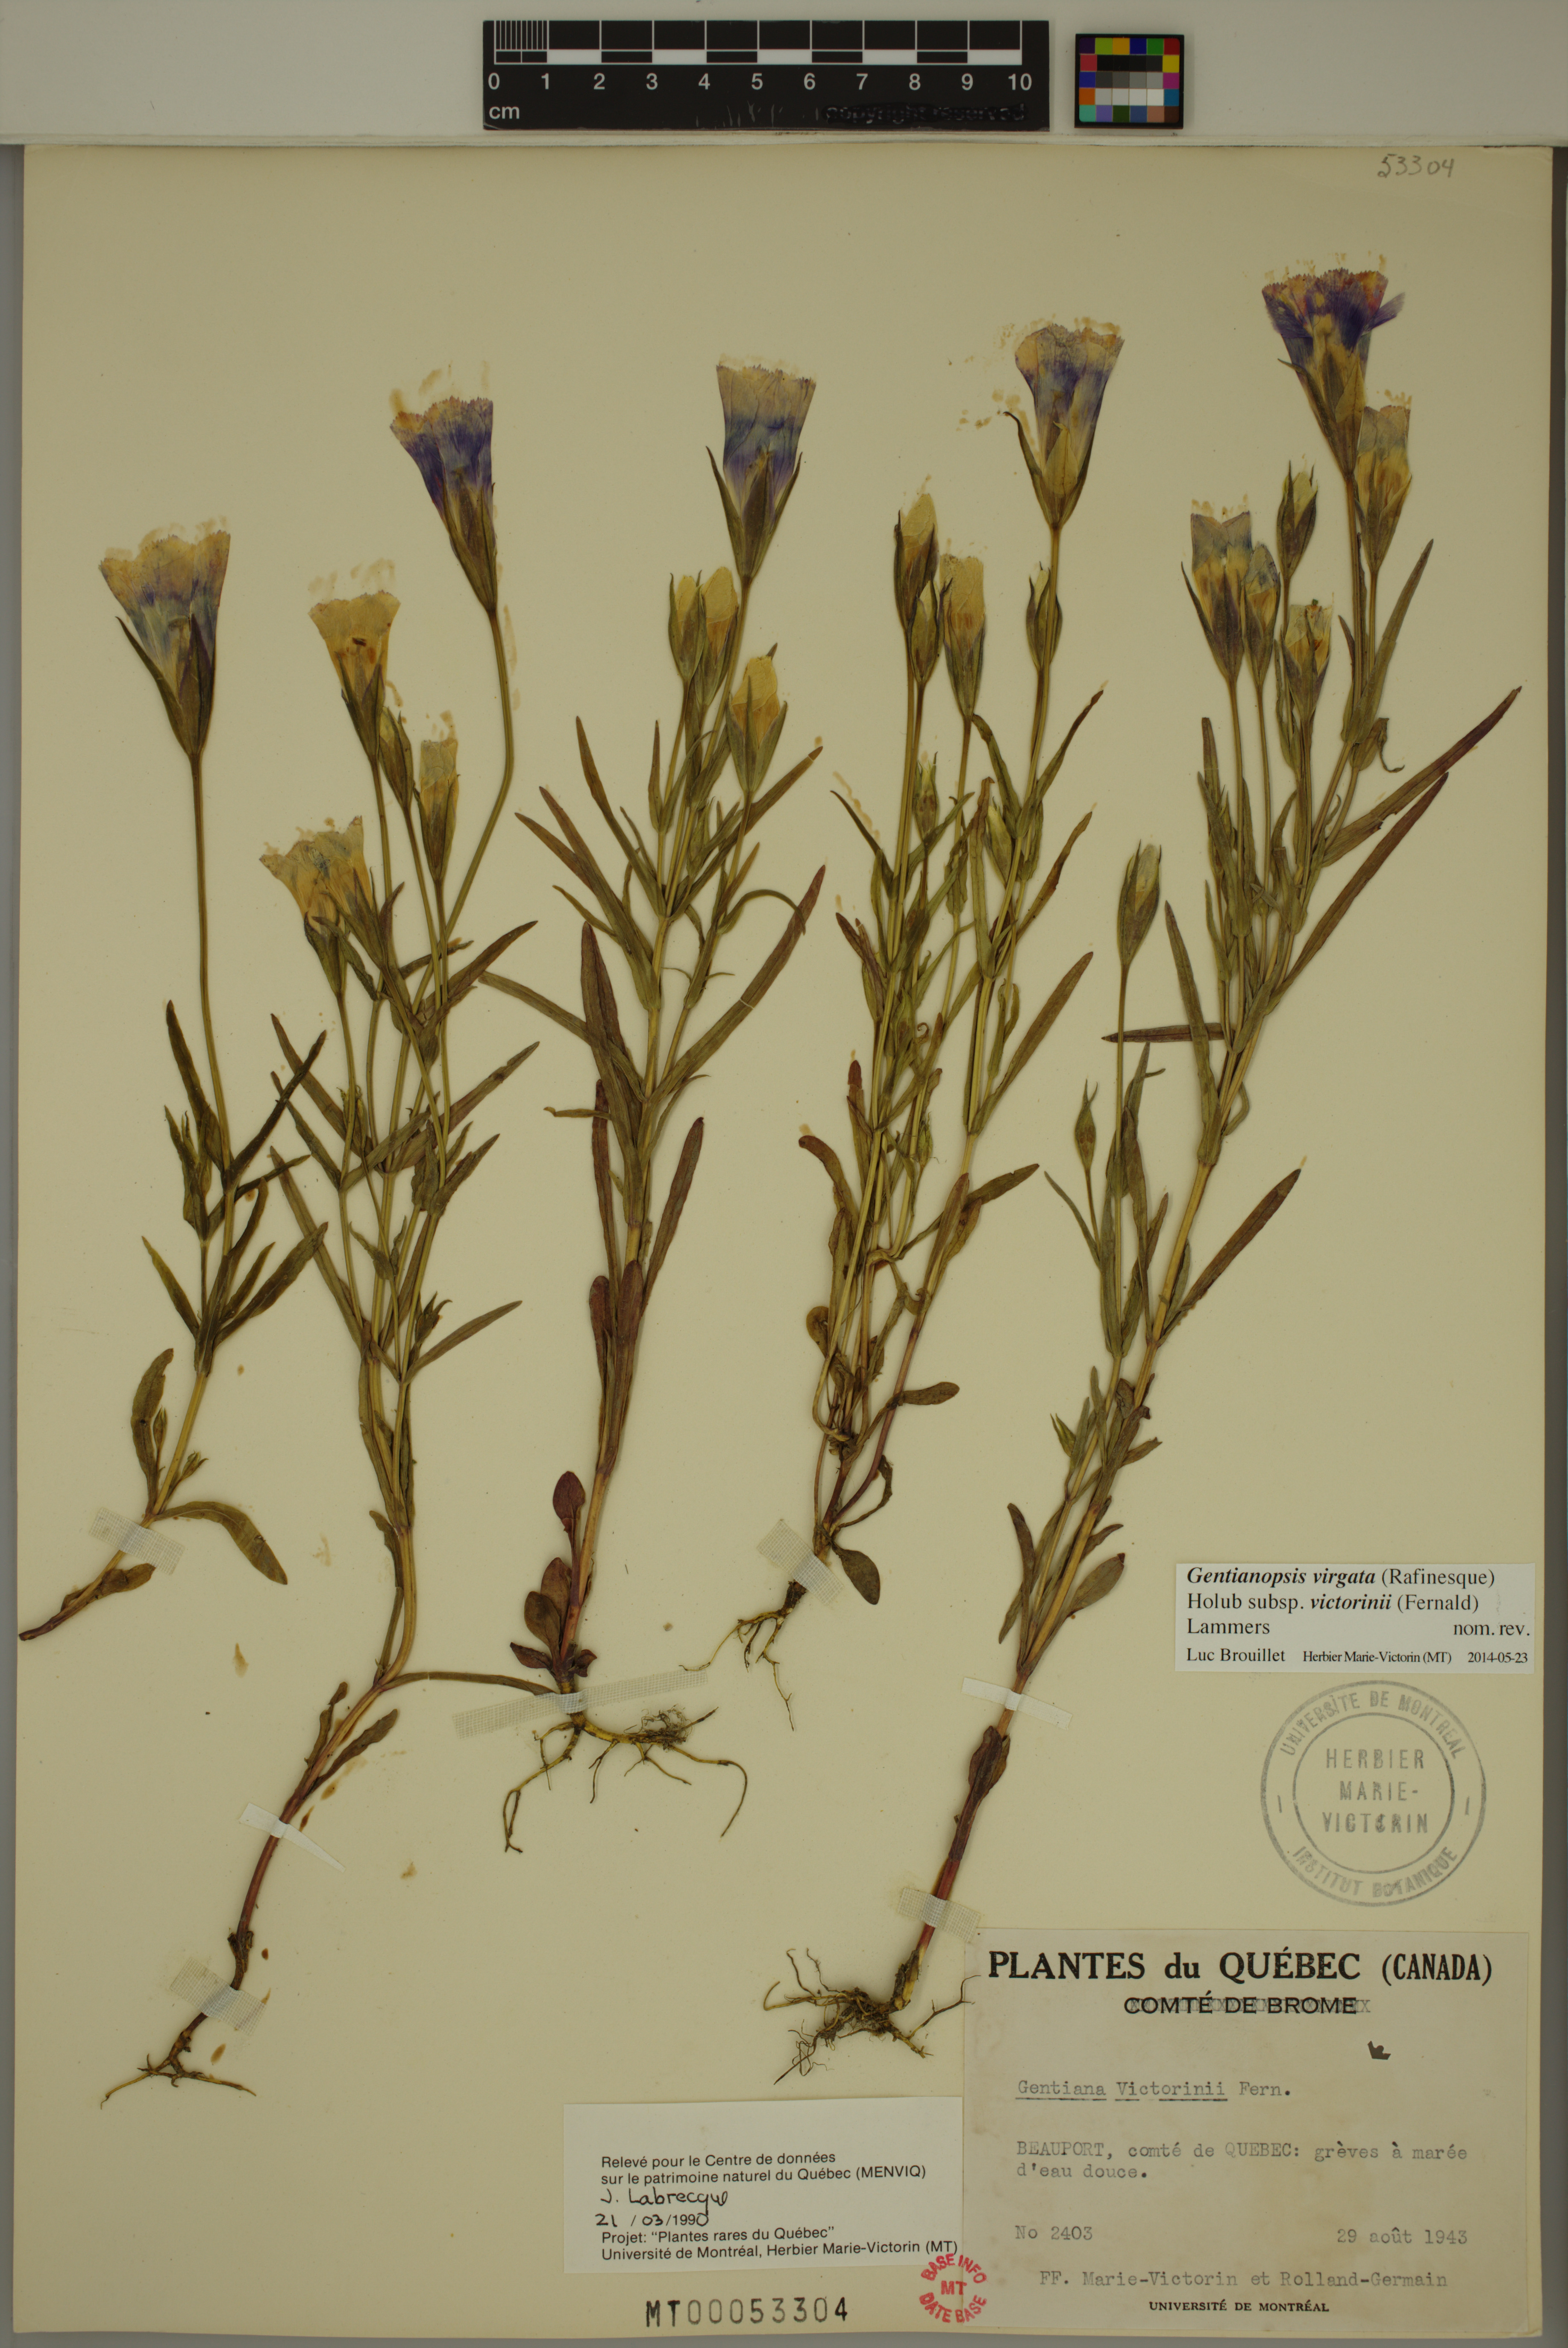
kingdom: Plantae
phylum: Tracheophyta
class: Magnoliopsida
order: Gentianales
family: Gentianaceae
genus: Gentianopsis
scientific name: Gentianopsis victorinii
